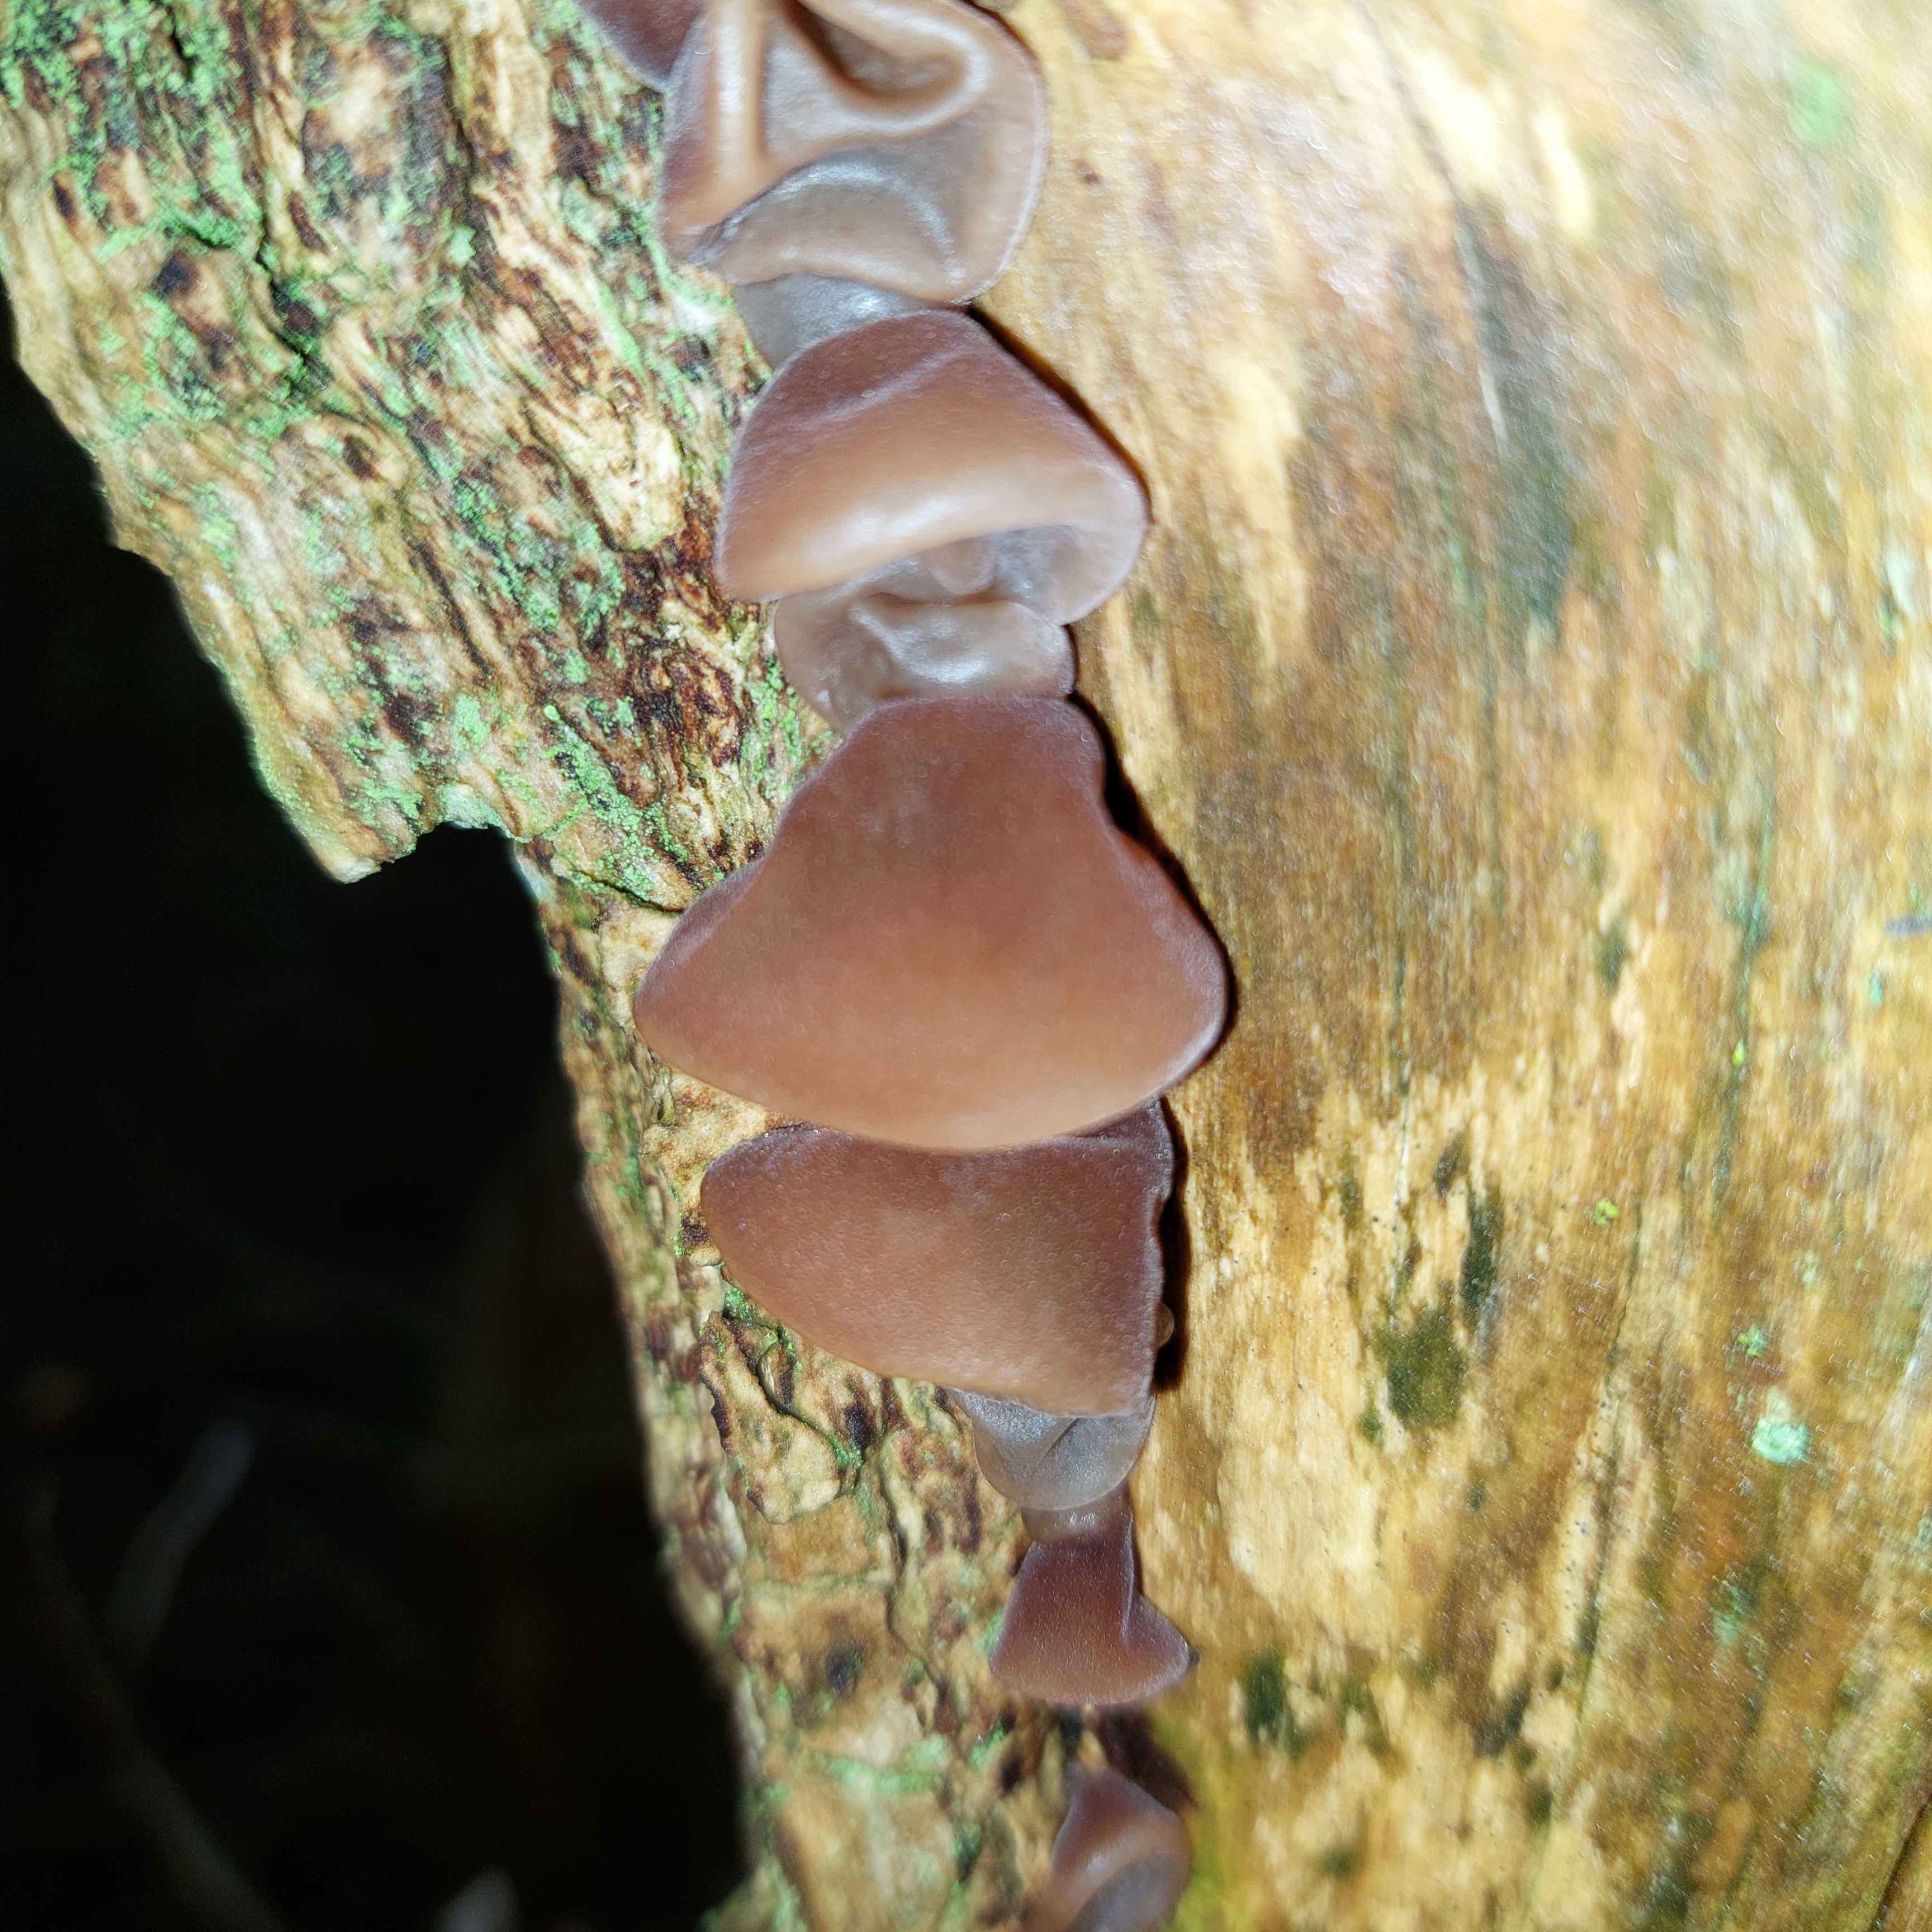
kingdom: Fungi
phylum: Basidiomycota
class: Agaricomycetes
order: Auriculariales
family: Auriculariaceae
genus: Auricularia
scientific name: Auricularia auricula-judae
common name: almindelig judasøre
